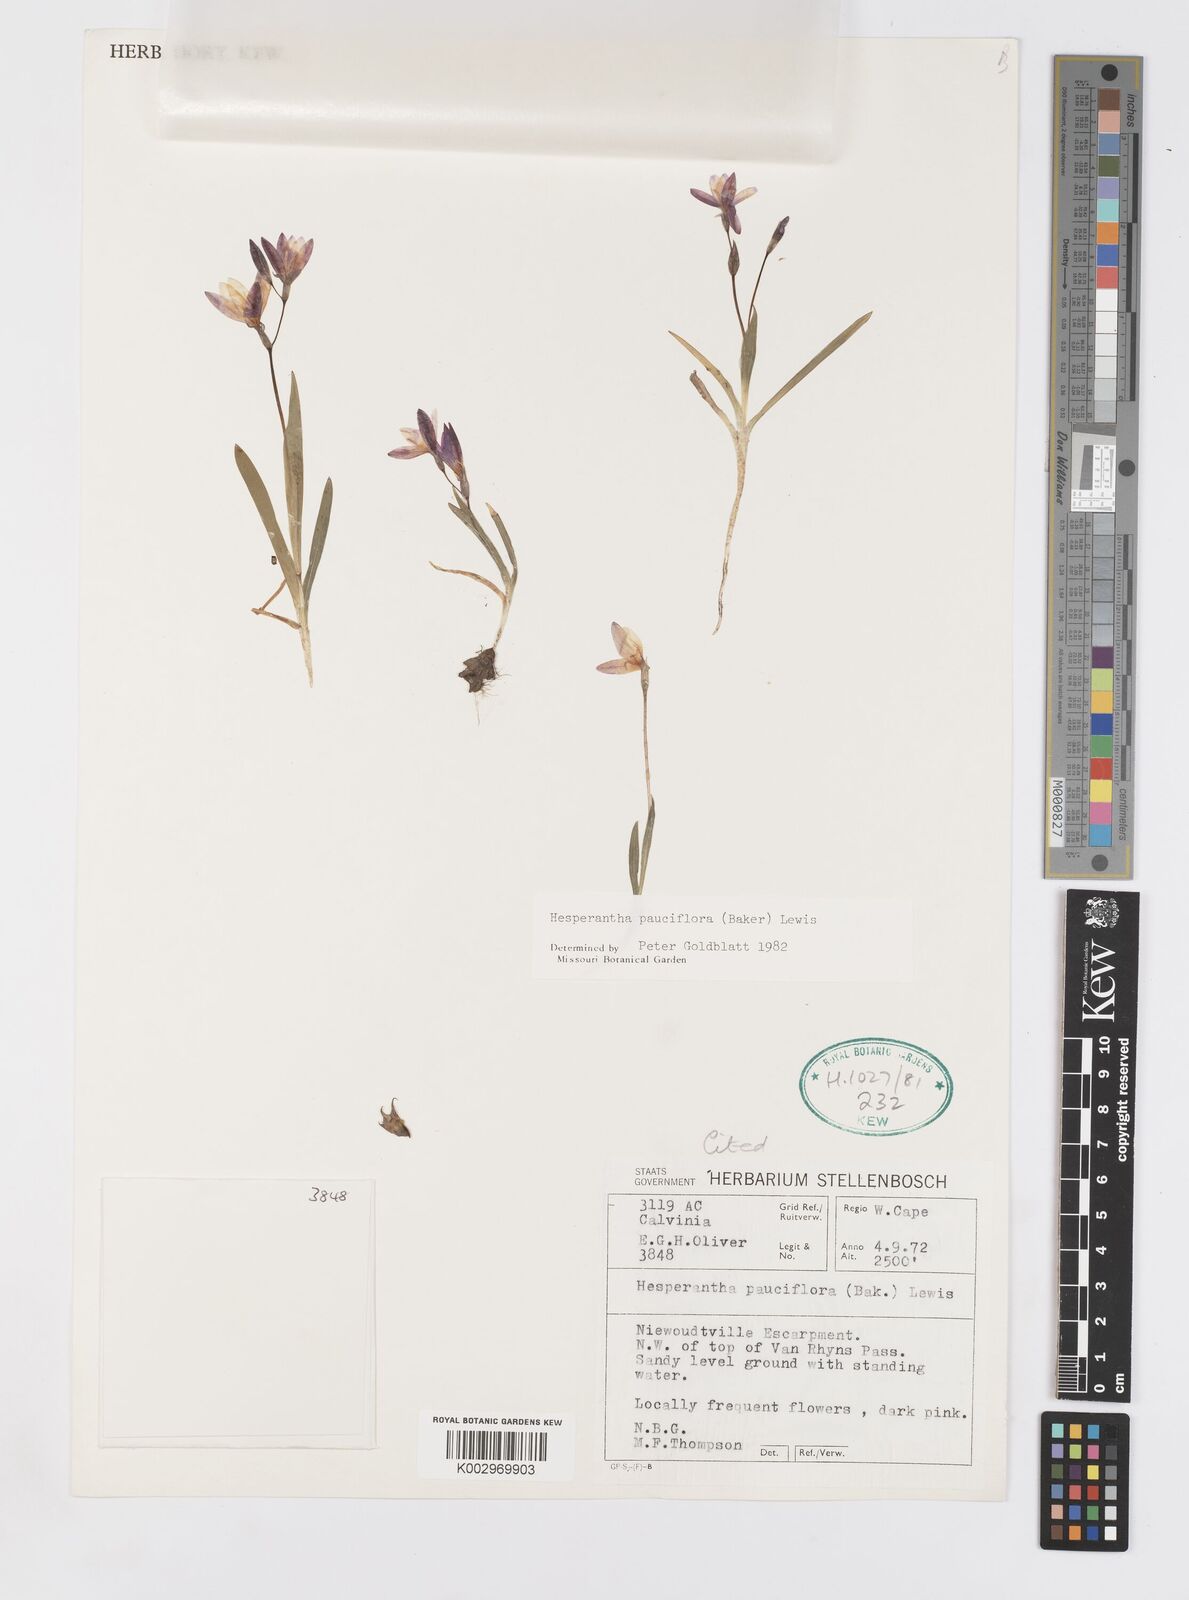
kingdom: Plantae
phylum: Tracheophyta
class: Liliopsida
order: Asparagales
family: Iridaceae
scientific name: Iridaceae
